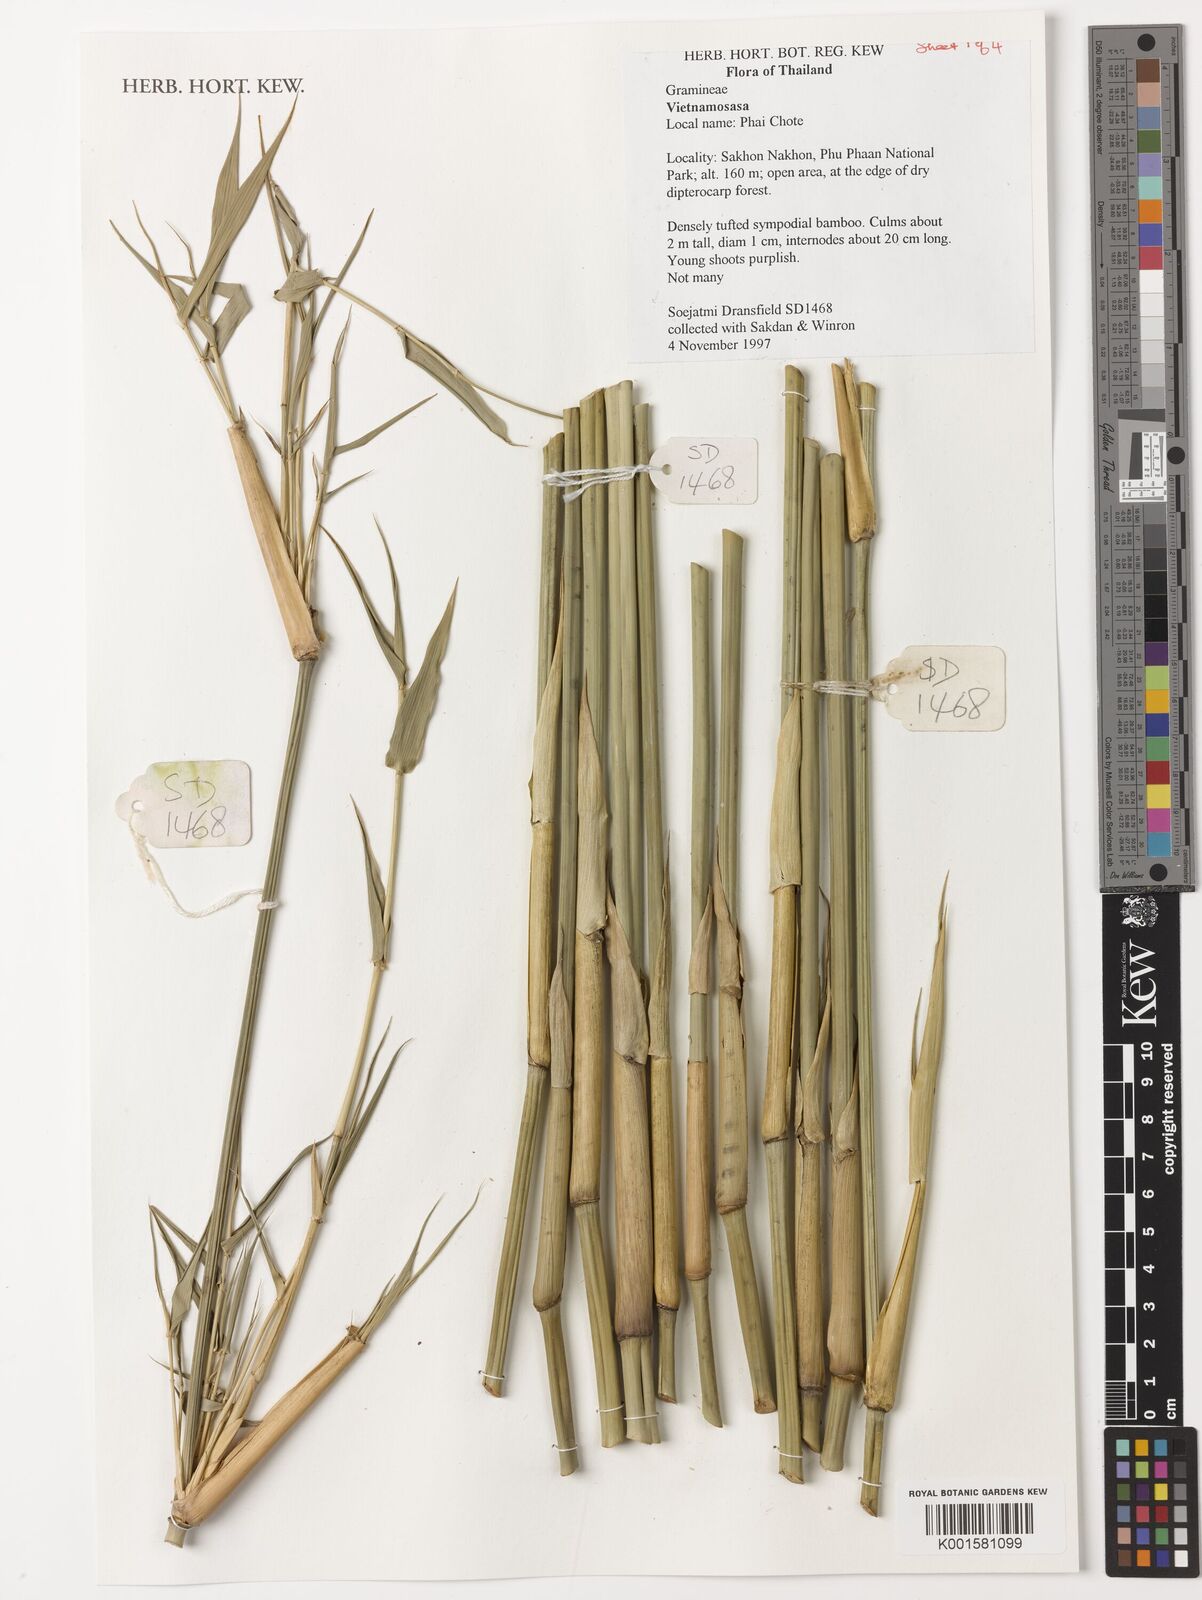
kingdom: Plantae
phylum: Tracheophyta
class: Liliopsida
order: Poales
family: Poaceae
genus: Vietnamosasa
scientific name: Vietnamosasa
